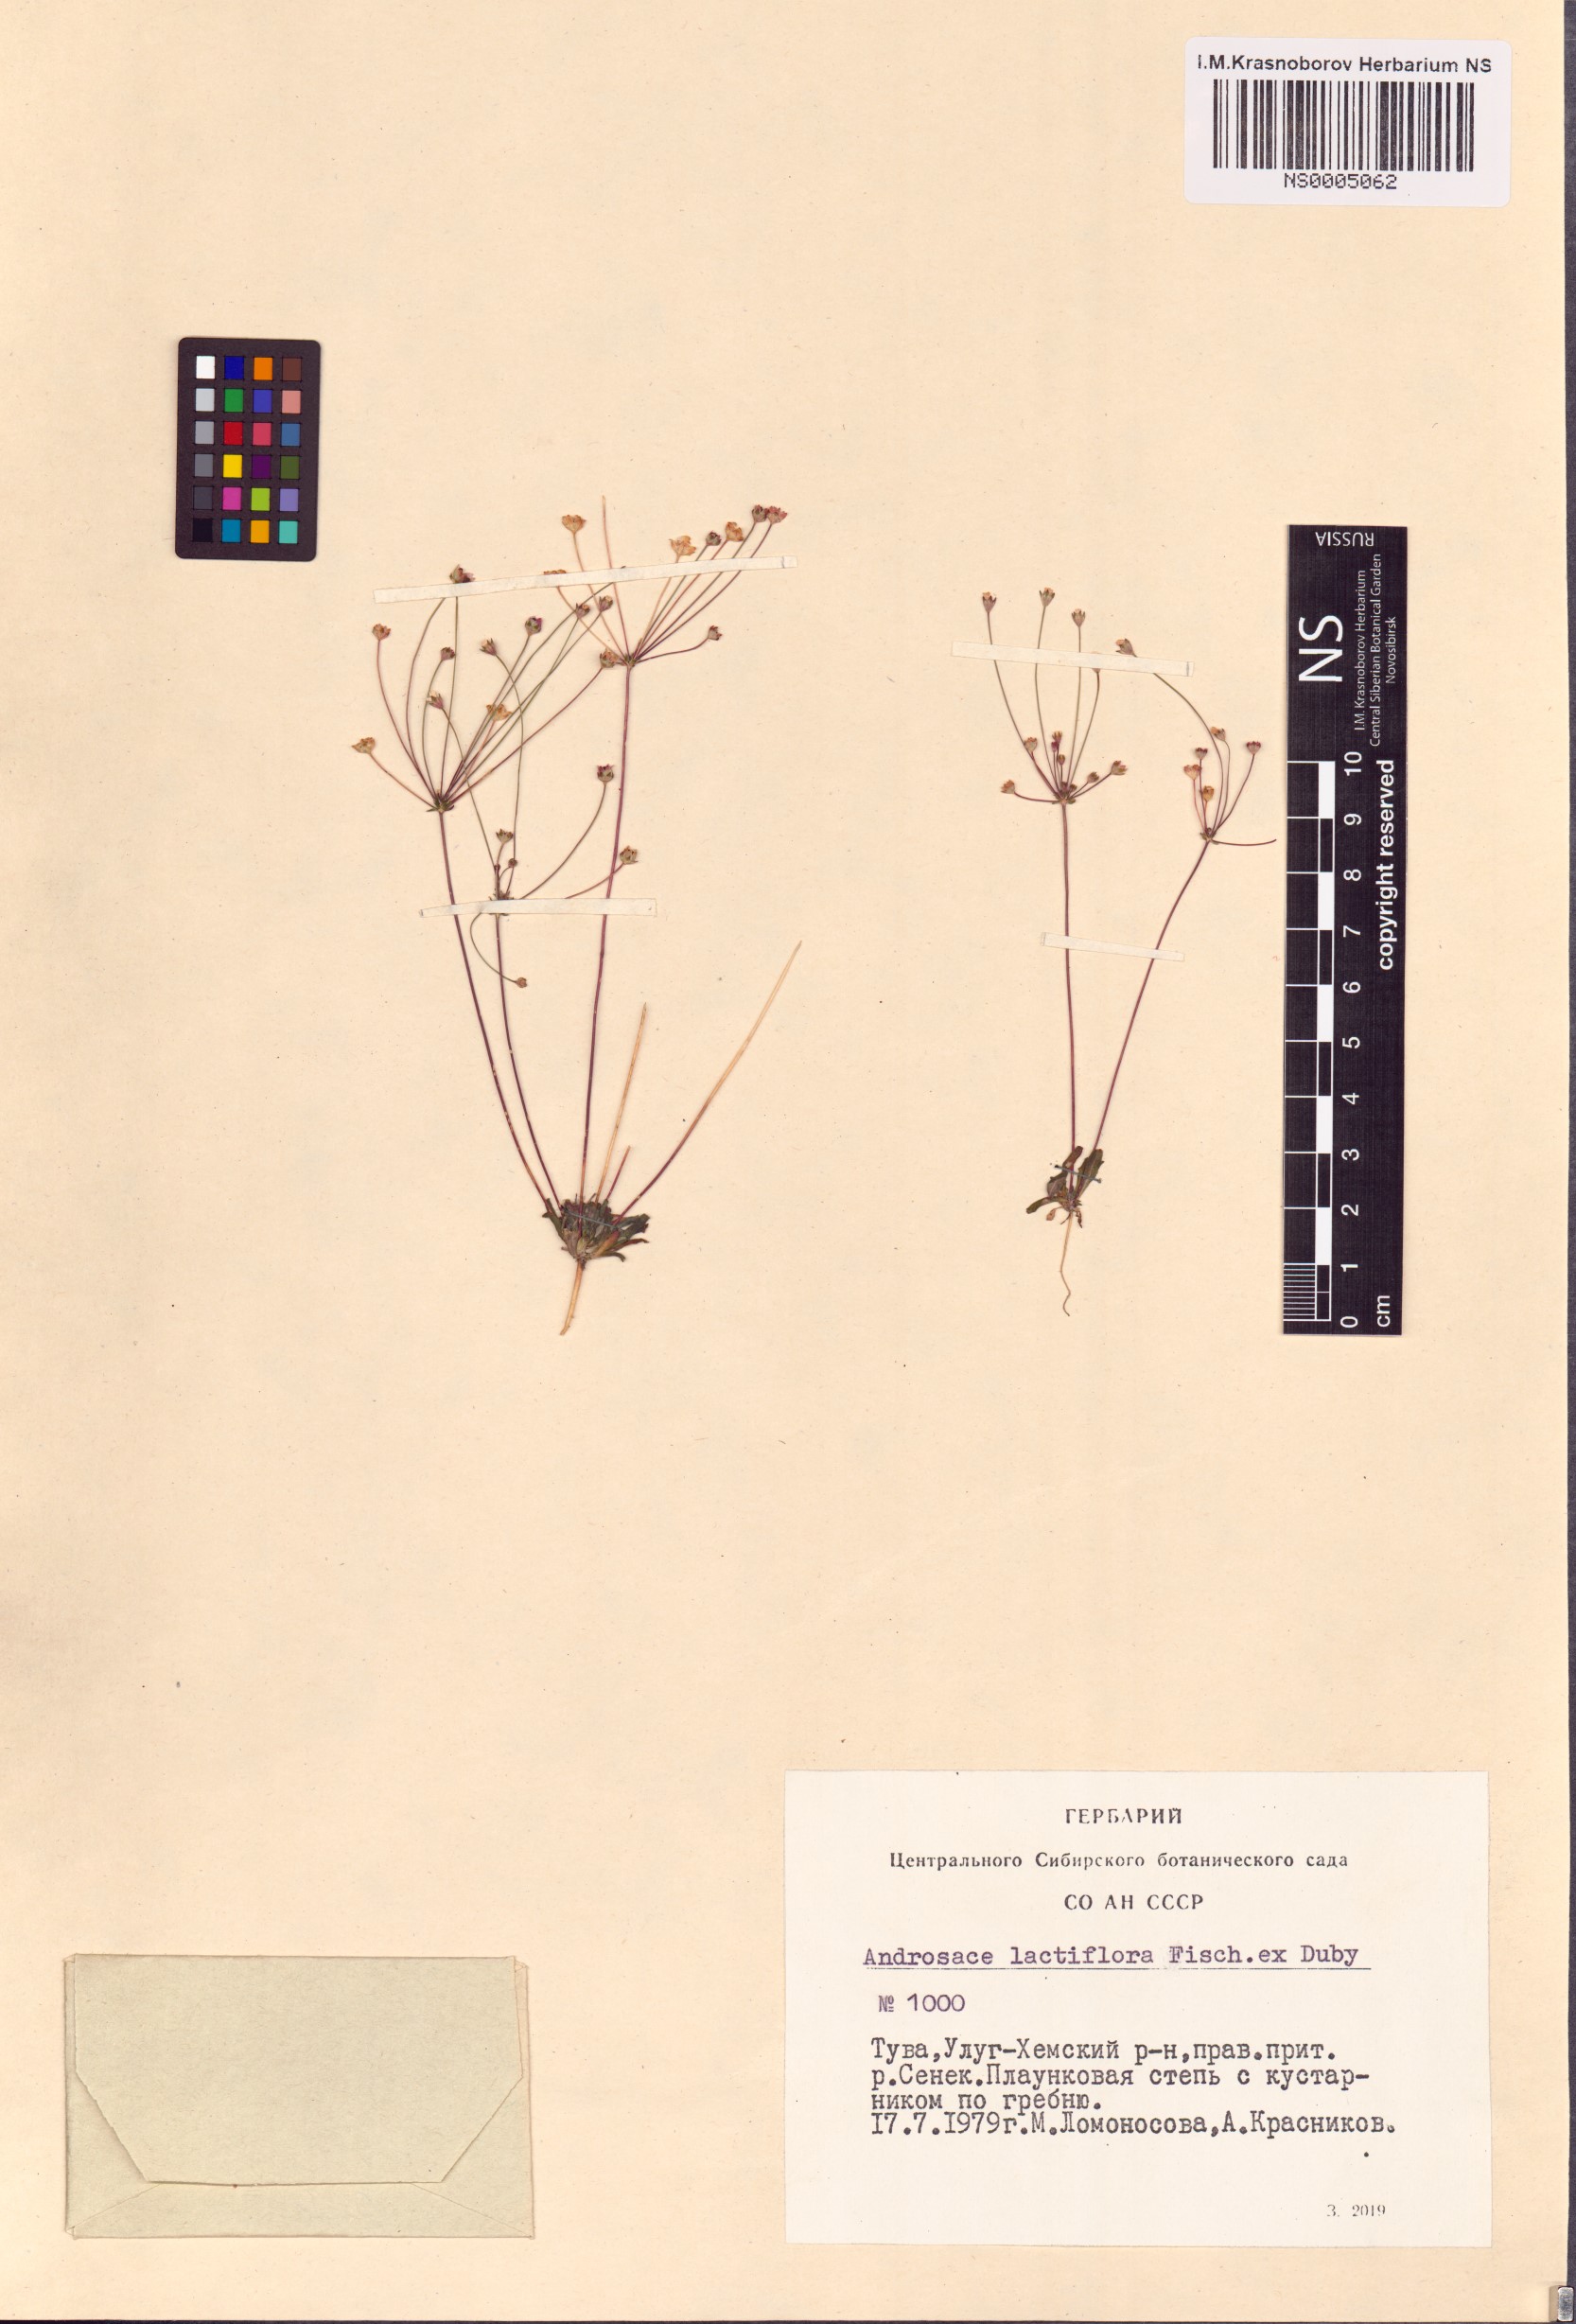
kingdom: Plantae
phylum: Tracheophyta
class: Magnoliopsida
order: Ericales
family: Primulaceae
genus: Androsace
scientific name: Androsace lactiflora
